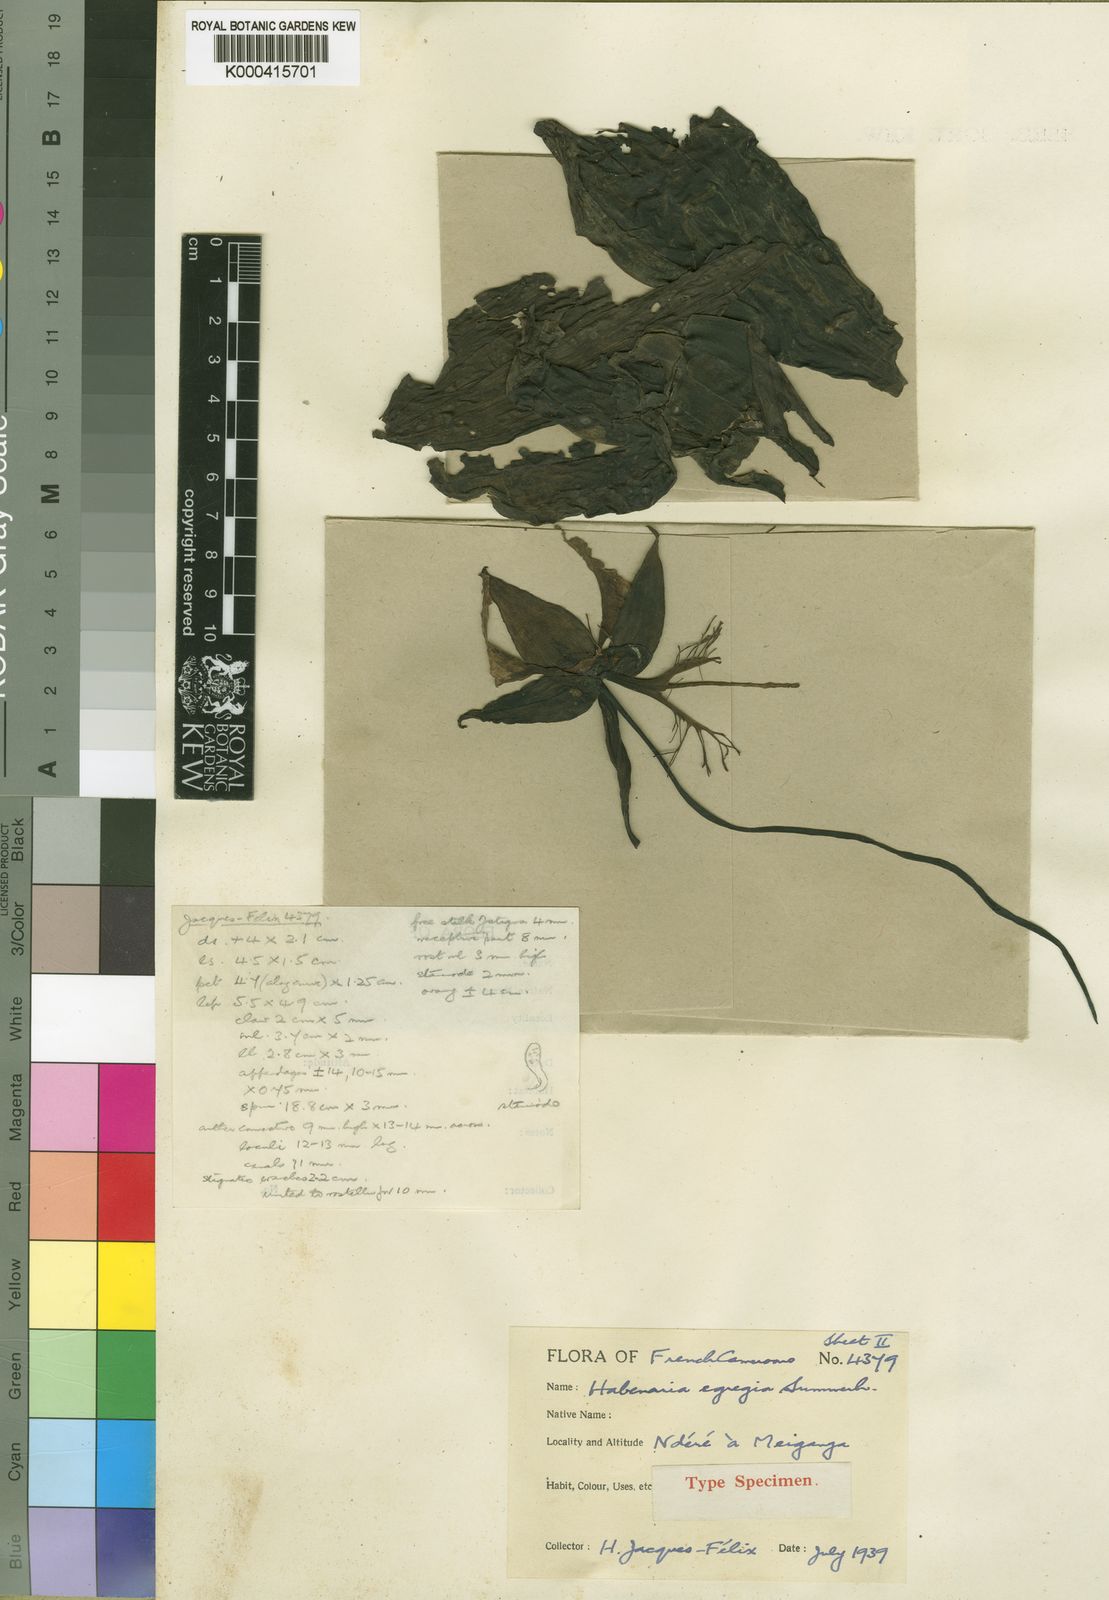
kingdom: Plantae
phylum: Tracheophyta
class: Liliopsida
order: Asparagales
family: Orchidaceae
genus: Habenaria
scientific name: Habenaria egregia
